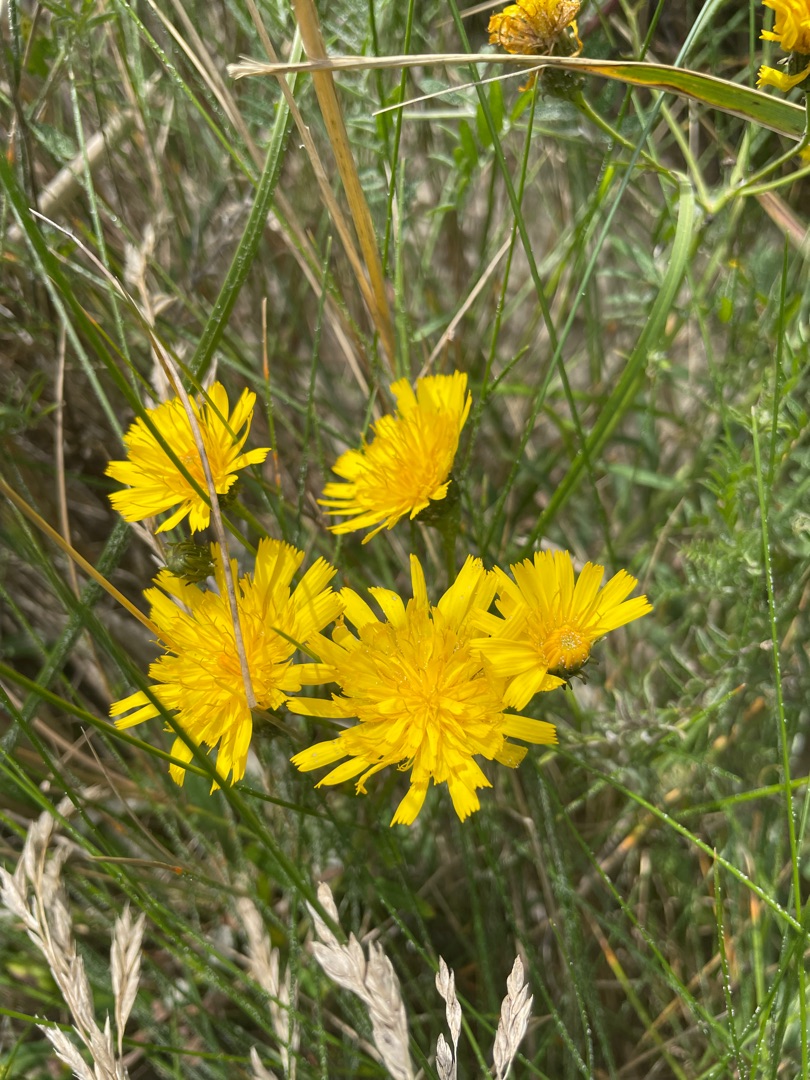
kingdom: Plantae
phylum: Tracheophyta
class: Magnoliopsida
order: Asterales
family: Asteraceae
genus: Hieracium
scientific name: Hieracium umbellatum
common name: Smalbladet høgeurt
